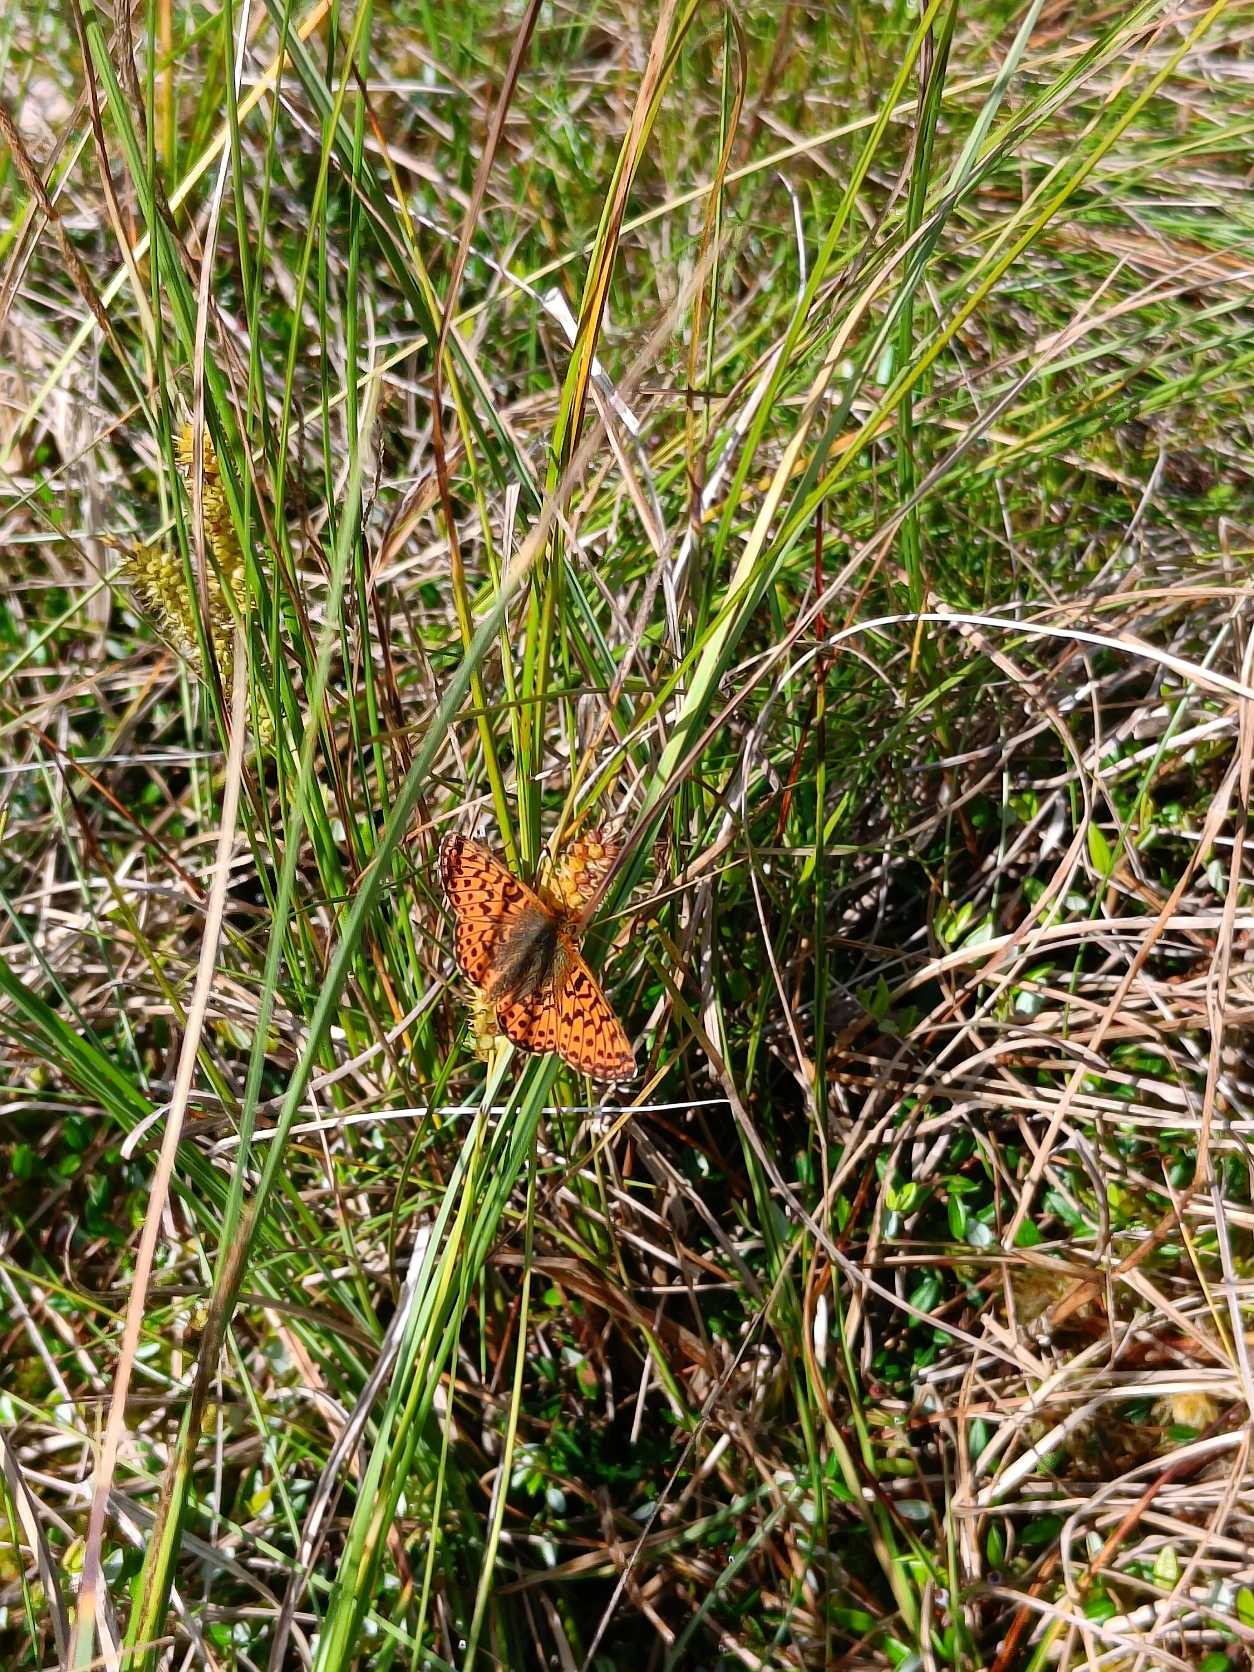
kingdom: Animalia
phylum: Arthropoda
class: Insecta
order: Lepidoptera
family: Nymphalidae
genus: Boloria
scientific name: Boloria aquilonaris
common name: Moseperlemorsommerfugl
